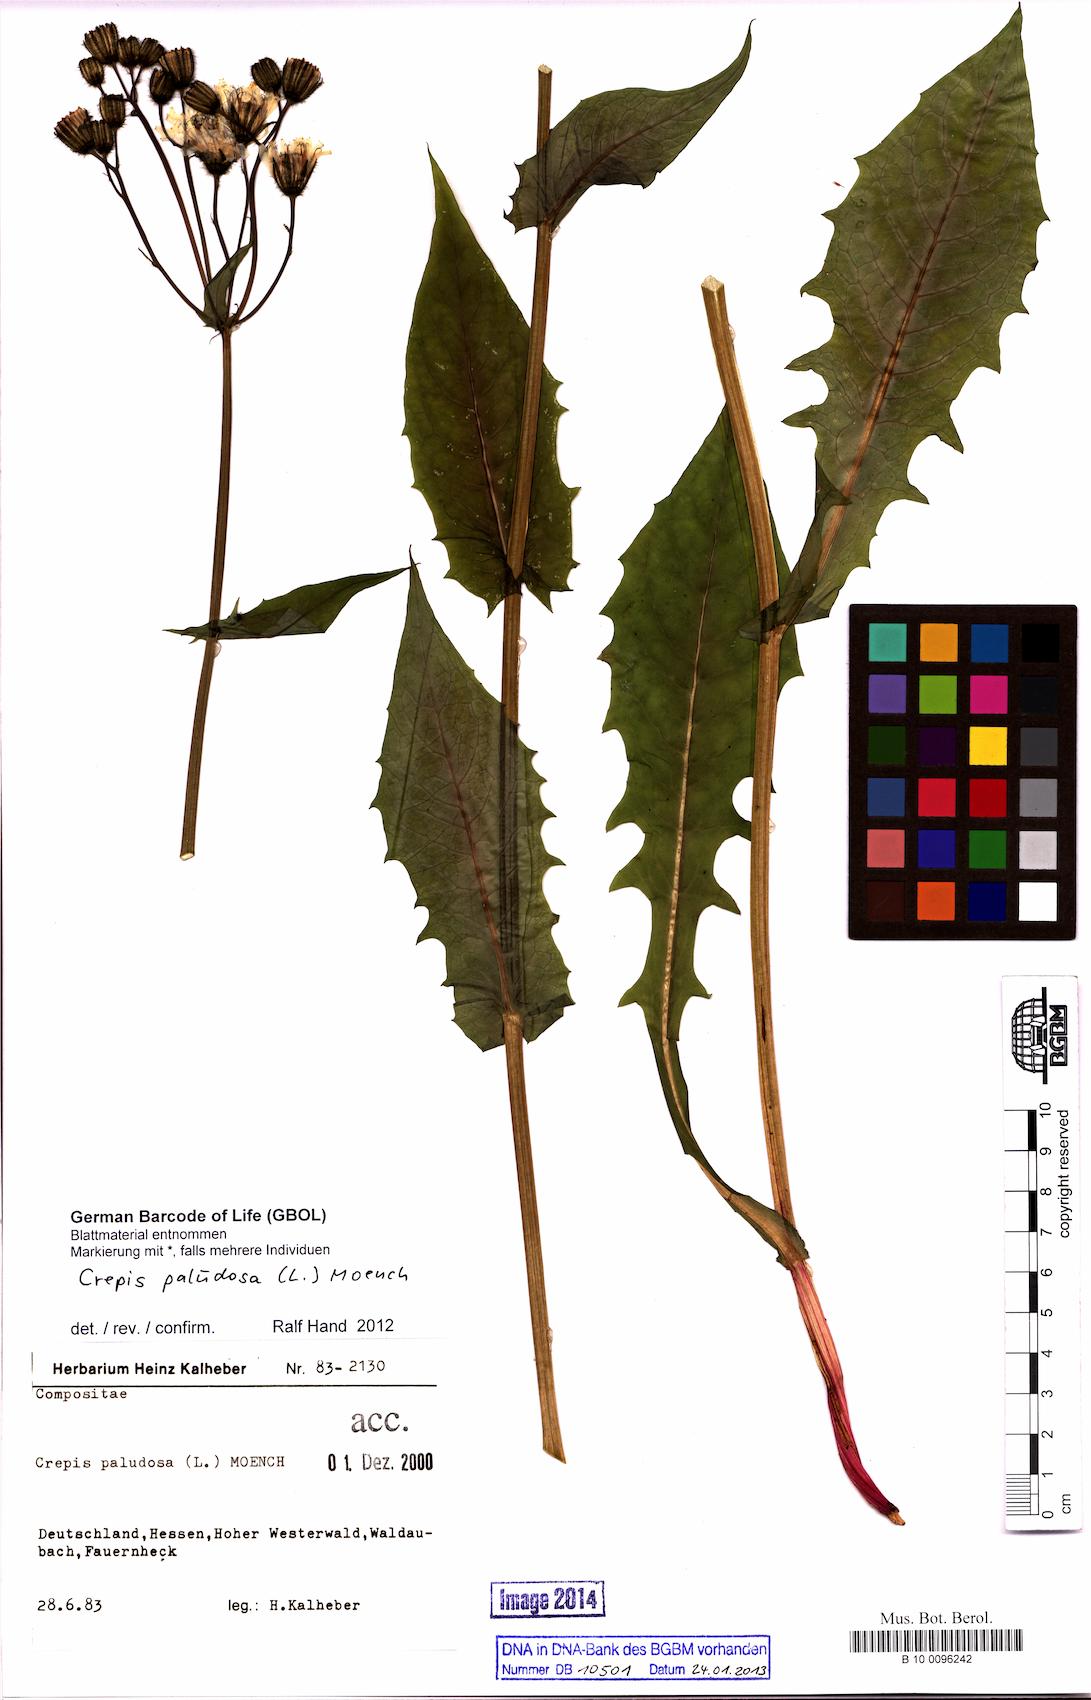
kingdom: Plantae
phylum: Tracheophyta
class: Magnoliopsida
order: Asterales
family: Asteraceae
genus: Crepis
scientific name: Crepis paludosa
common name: Marsh hawk's-beard
